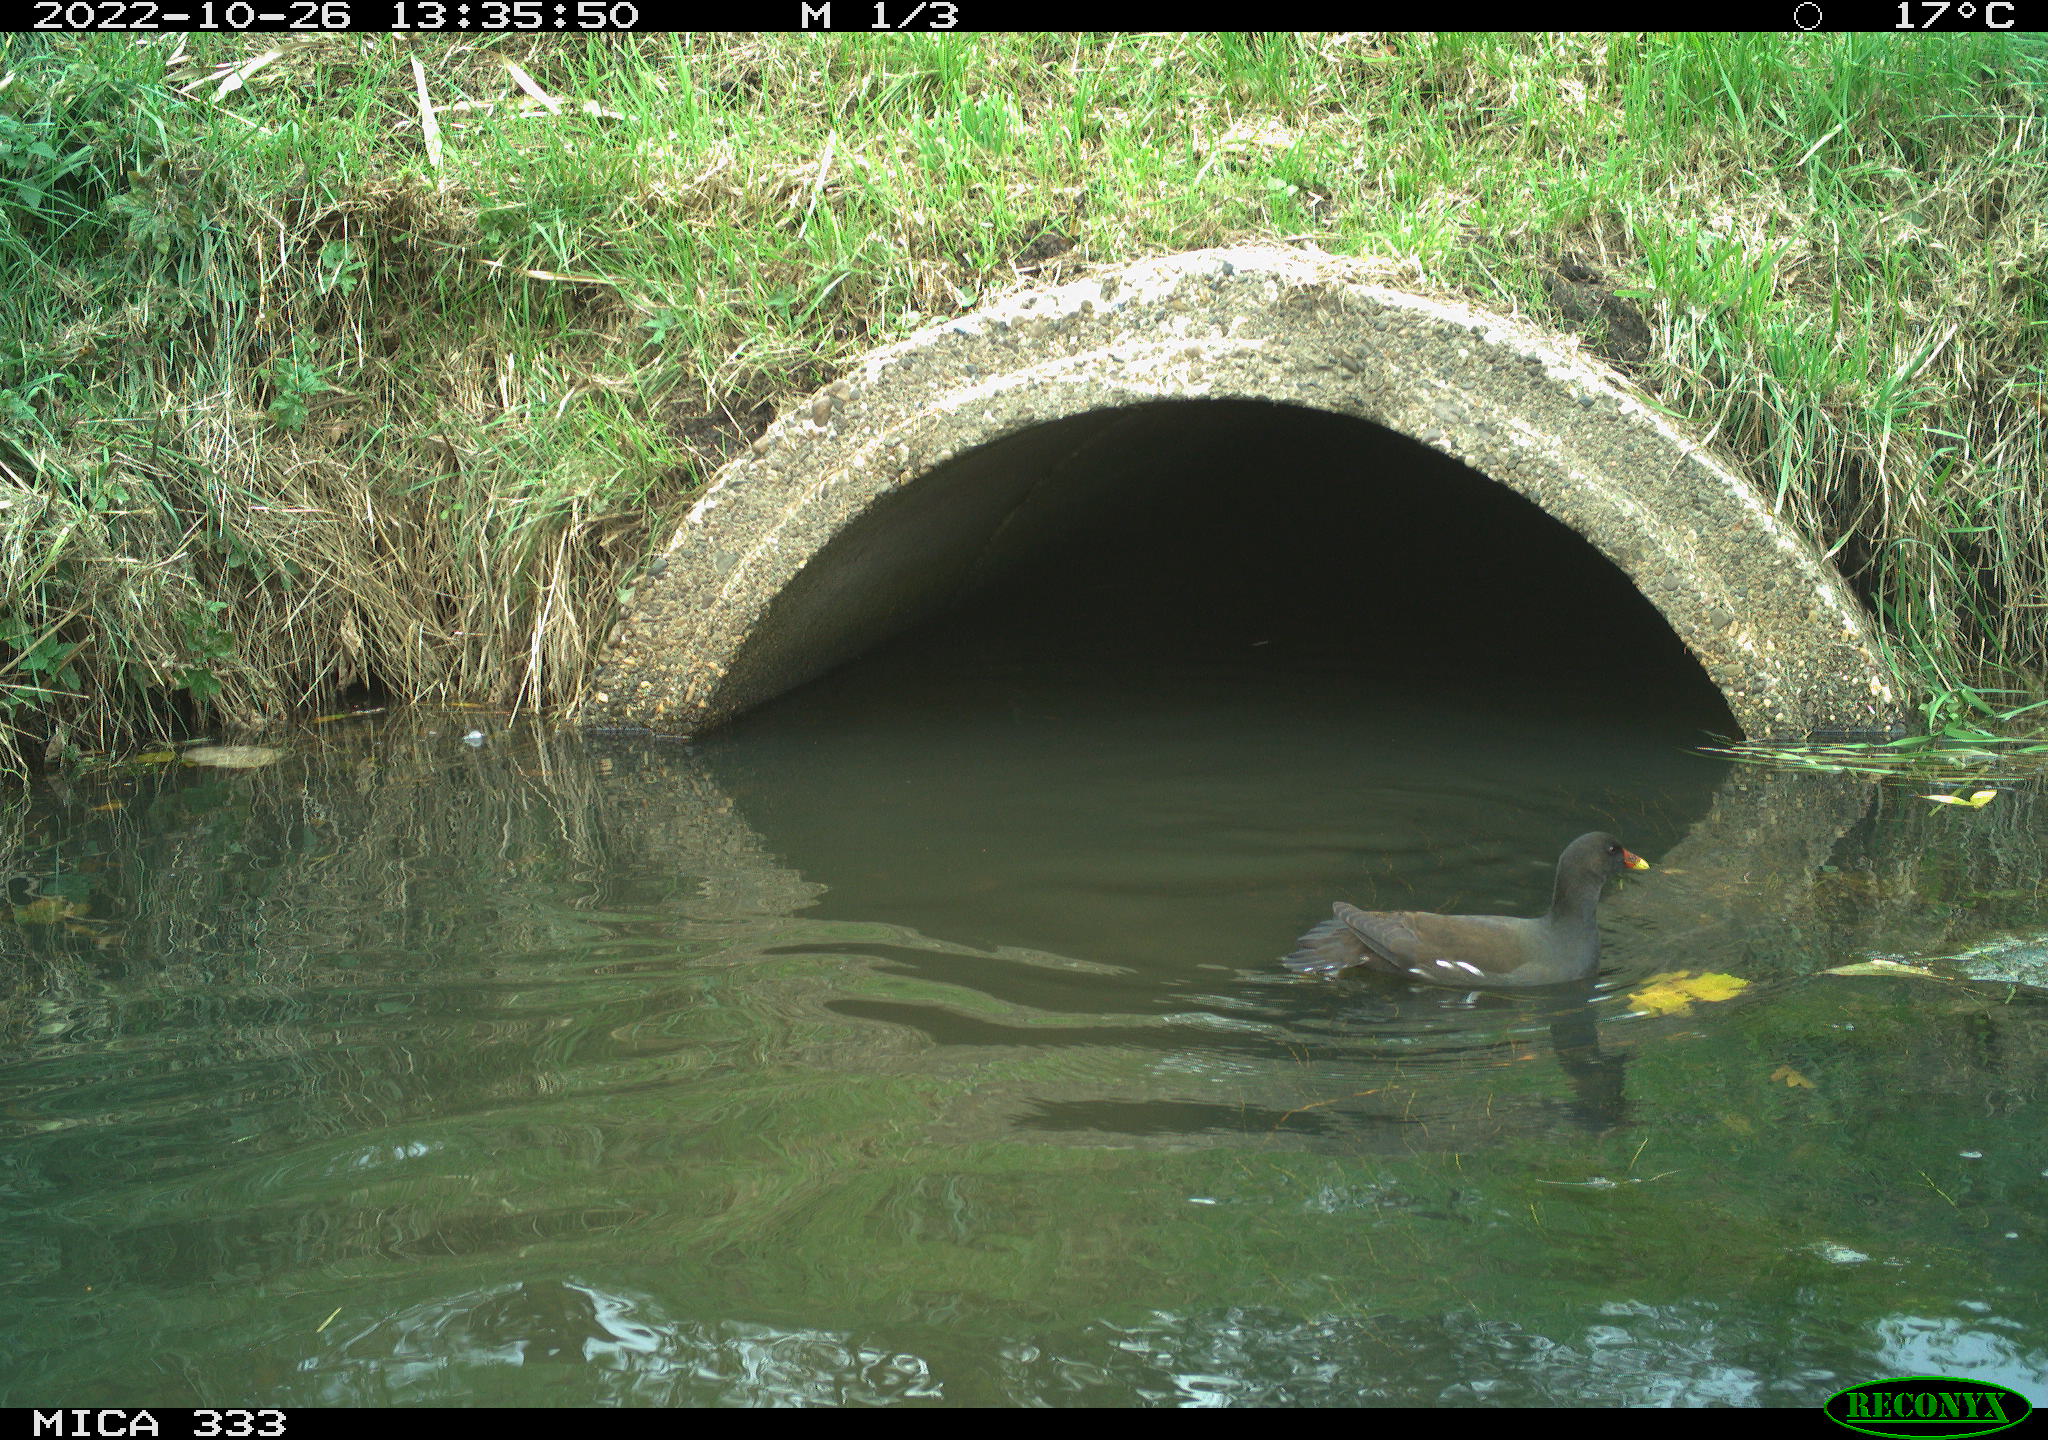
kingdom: Animalia
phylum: Chordata
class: Aves
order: Gruiformes
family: Rallidae
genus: Gallinula
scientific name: Gallinula chloropus
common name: Common moorhen
